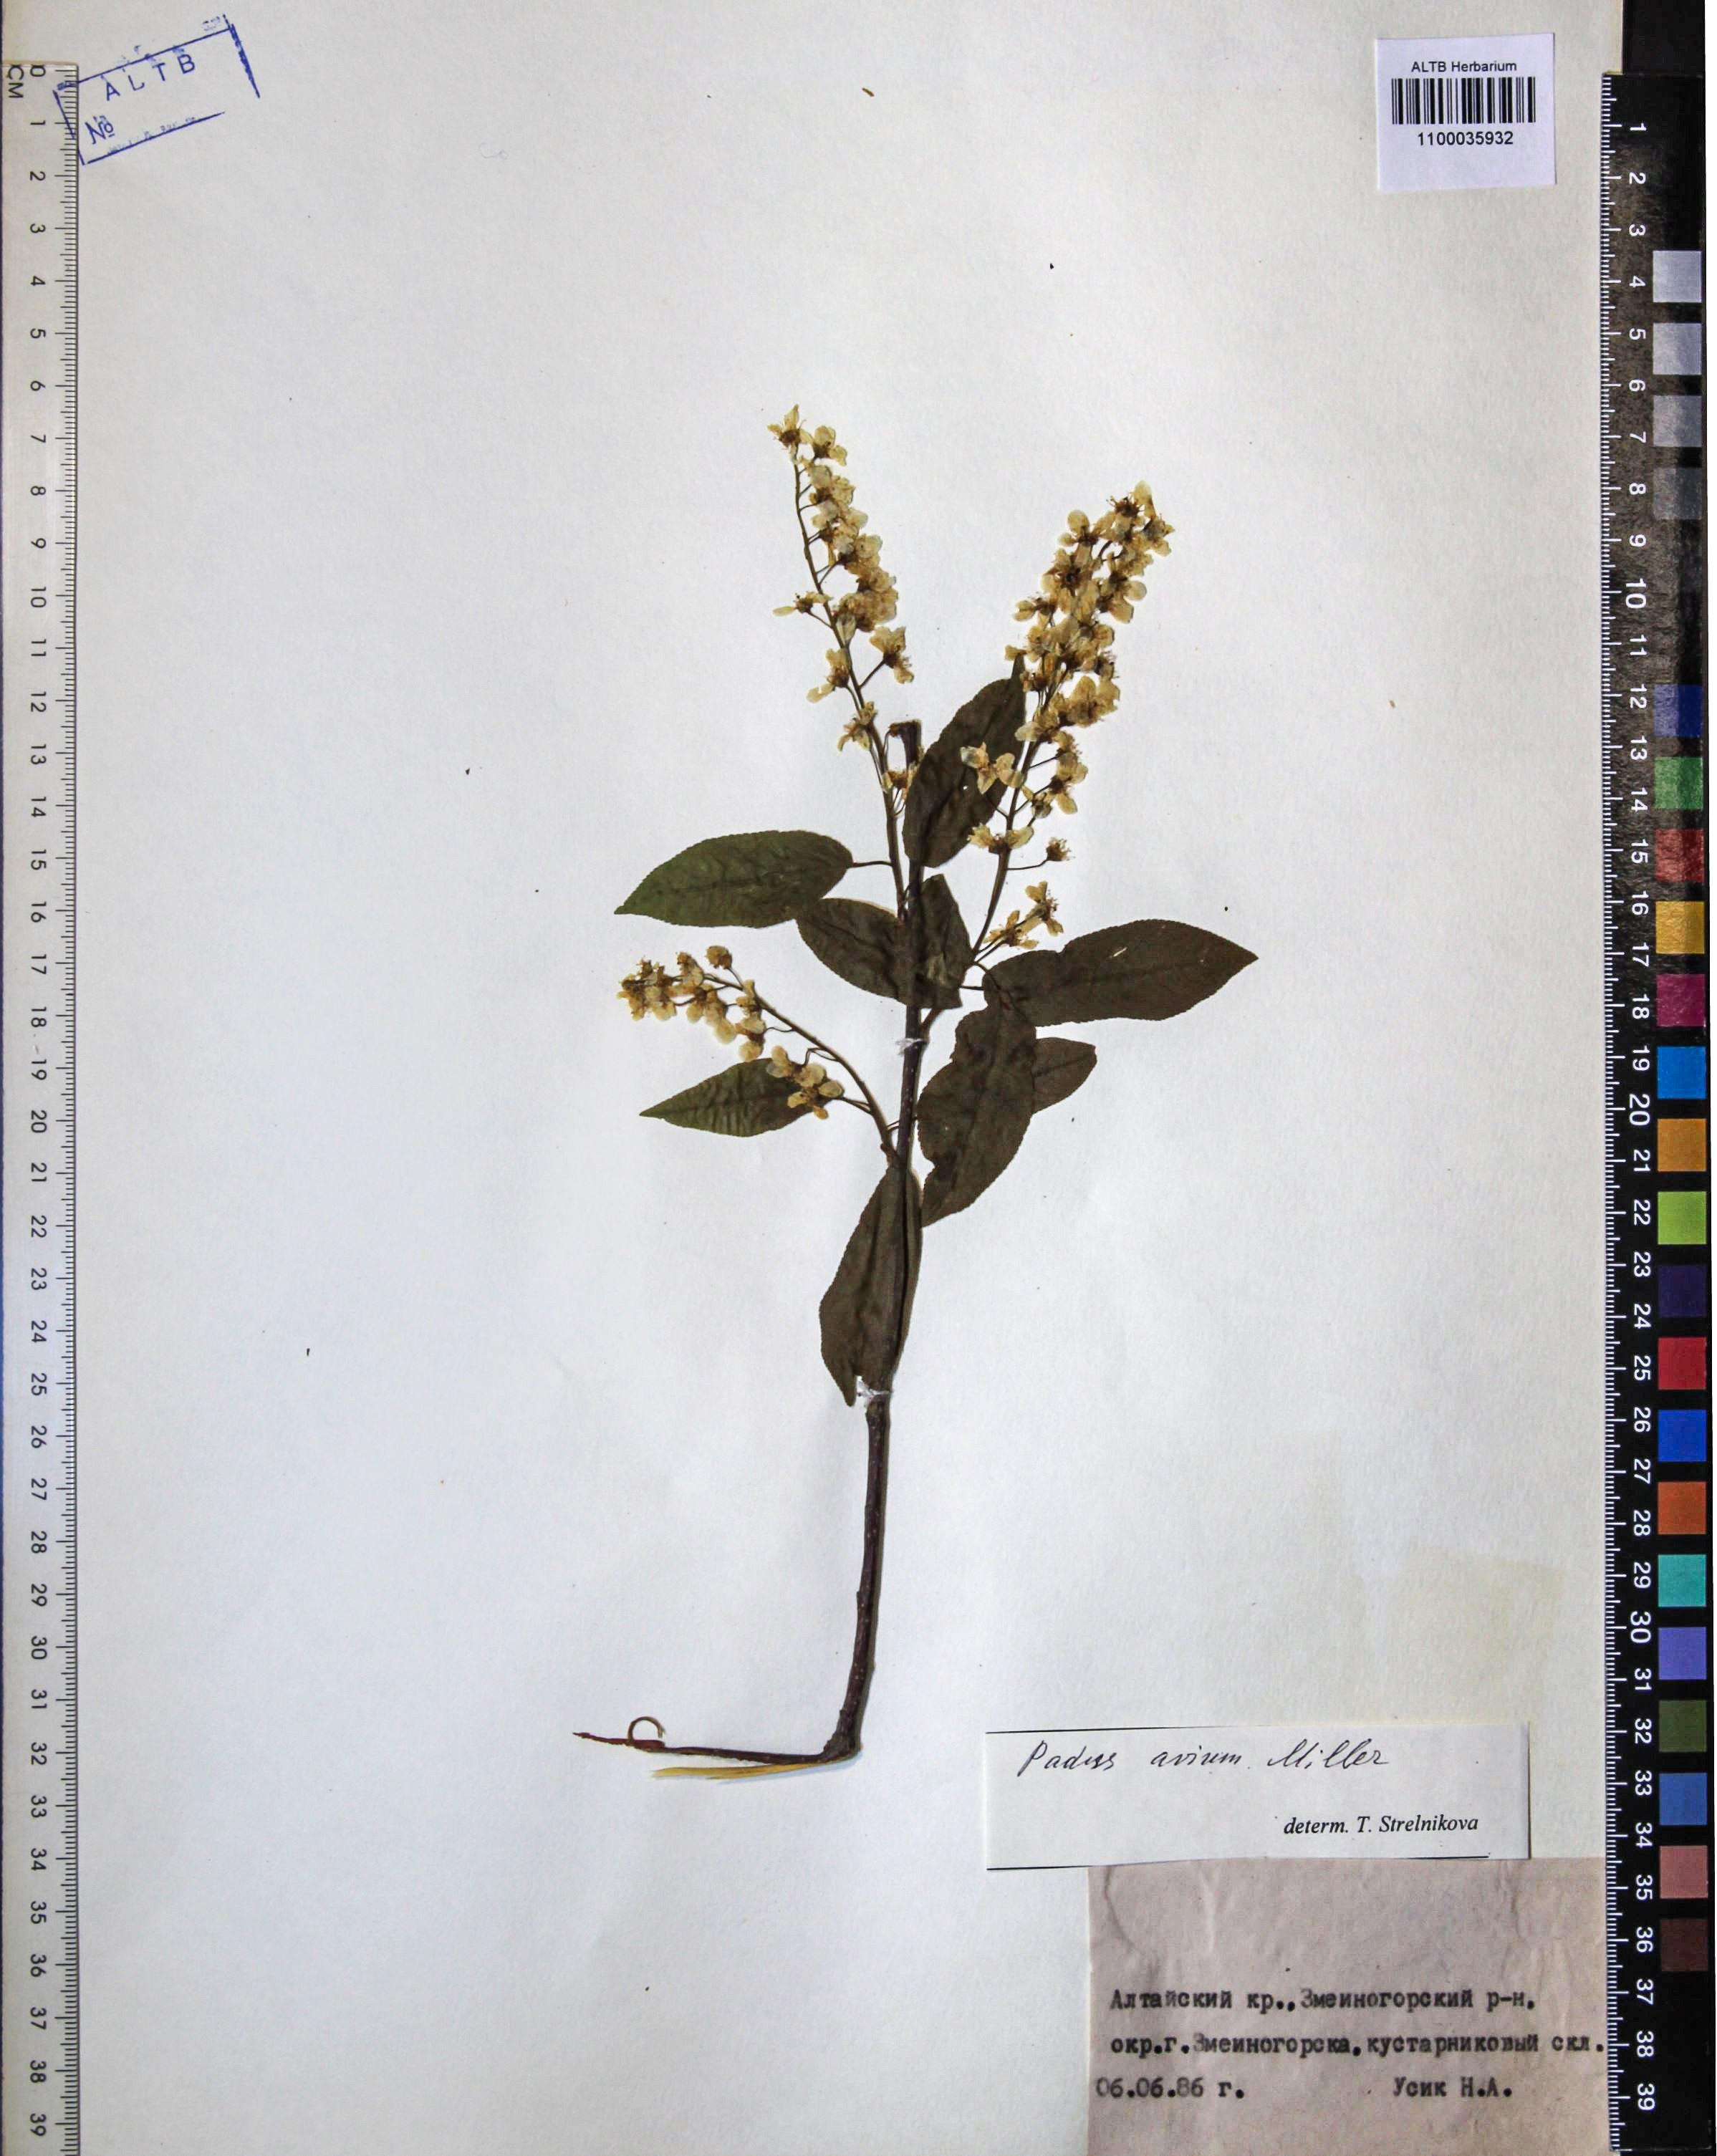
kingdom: Plantae
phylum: Tracheophyta
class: Magnoliopsida
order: Rosales
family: Rosaceae
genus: Prunus
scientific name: Prunus padus
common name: Bird cherry
